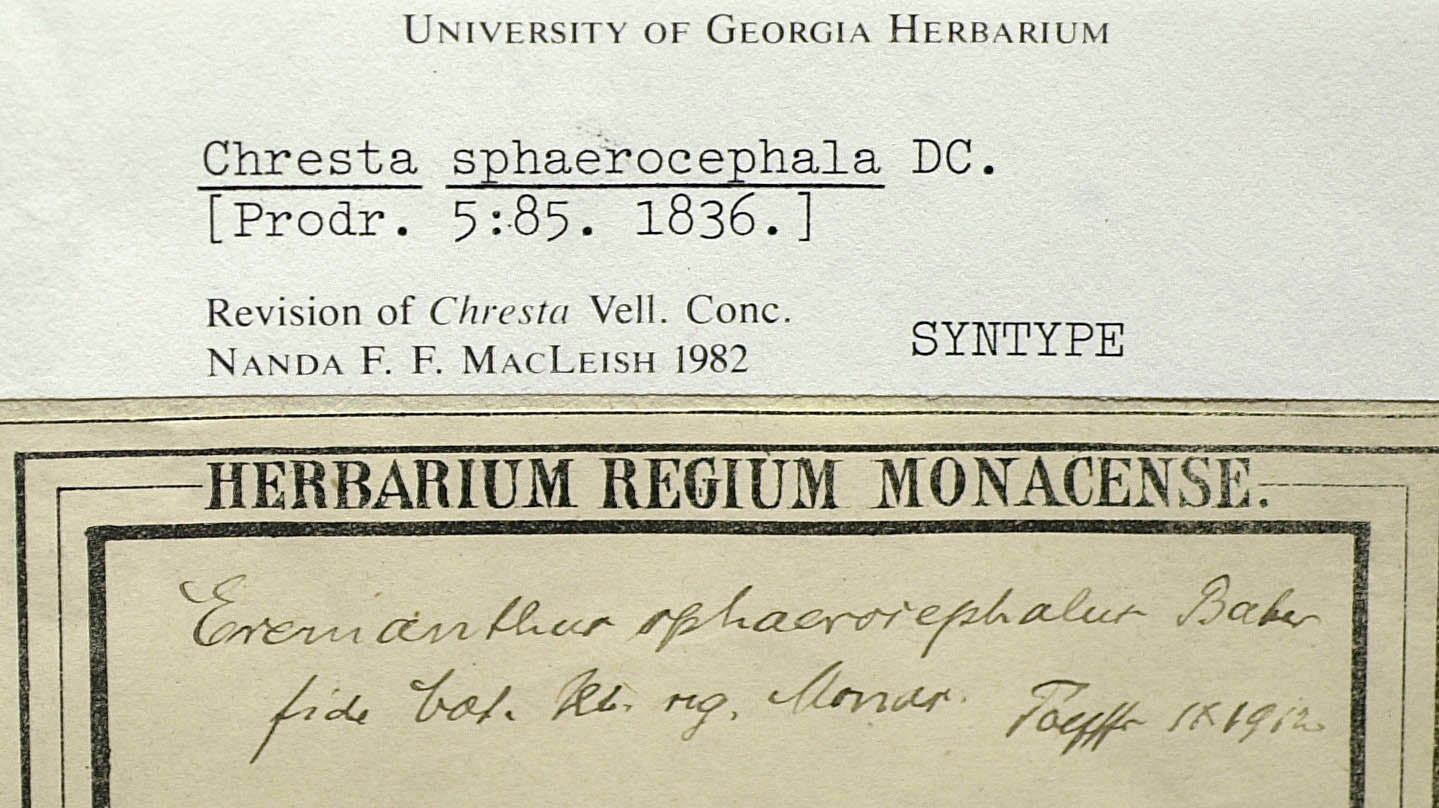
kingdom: Plantae
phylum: Tracheophyta
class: Magnoliopsida
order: Asterales
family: Asteraceae
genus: Chresta
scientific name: Chresta sphaerocephala
